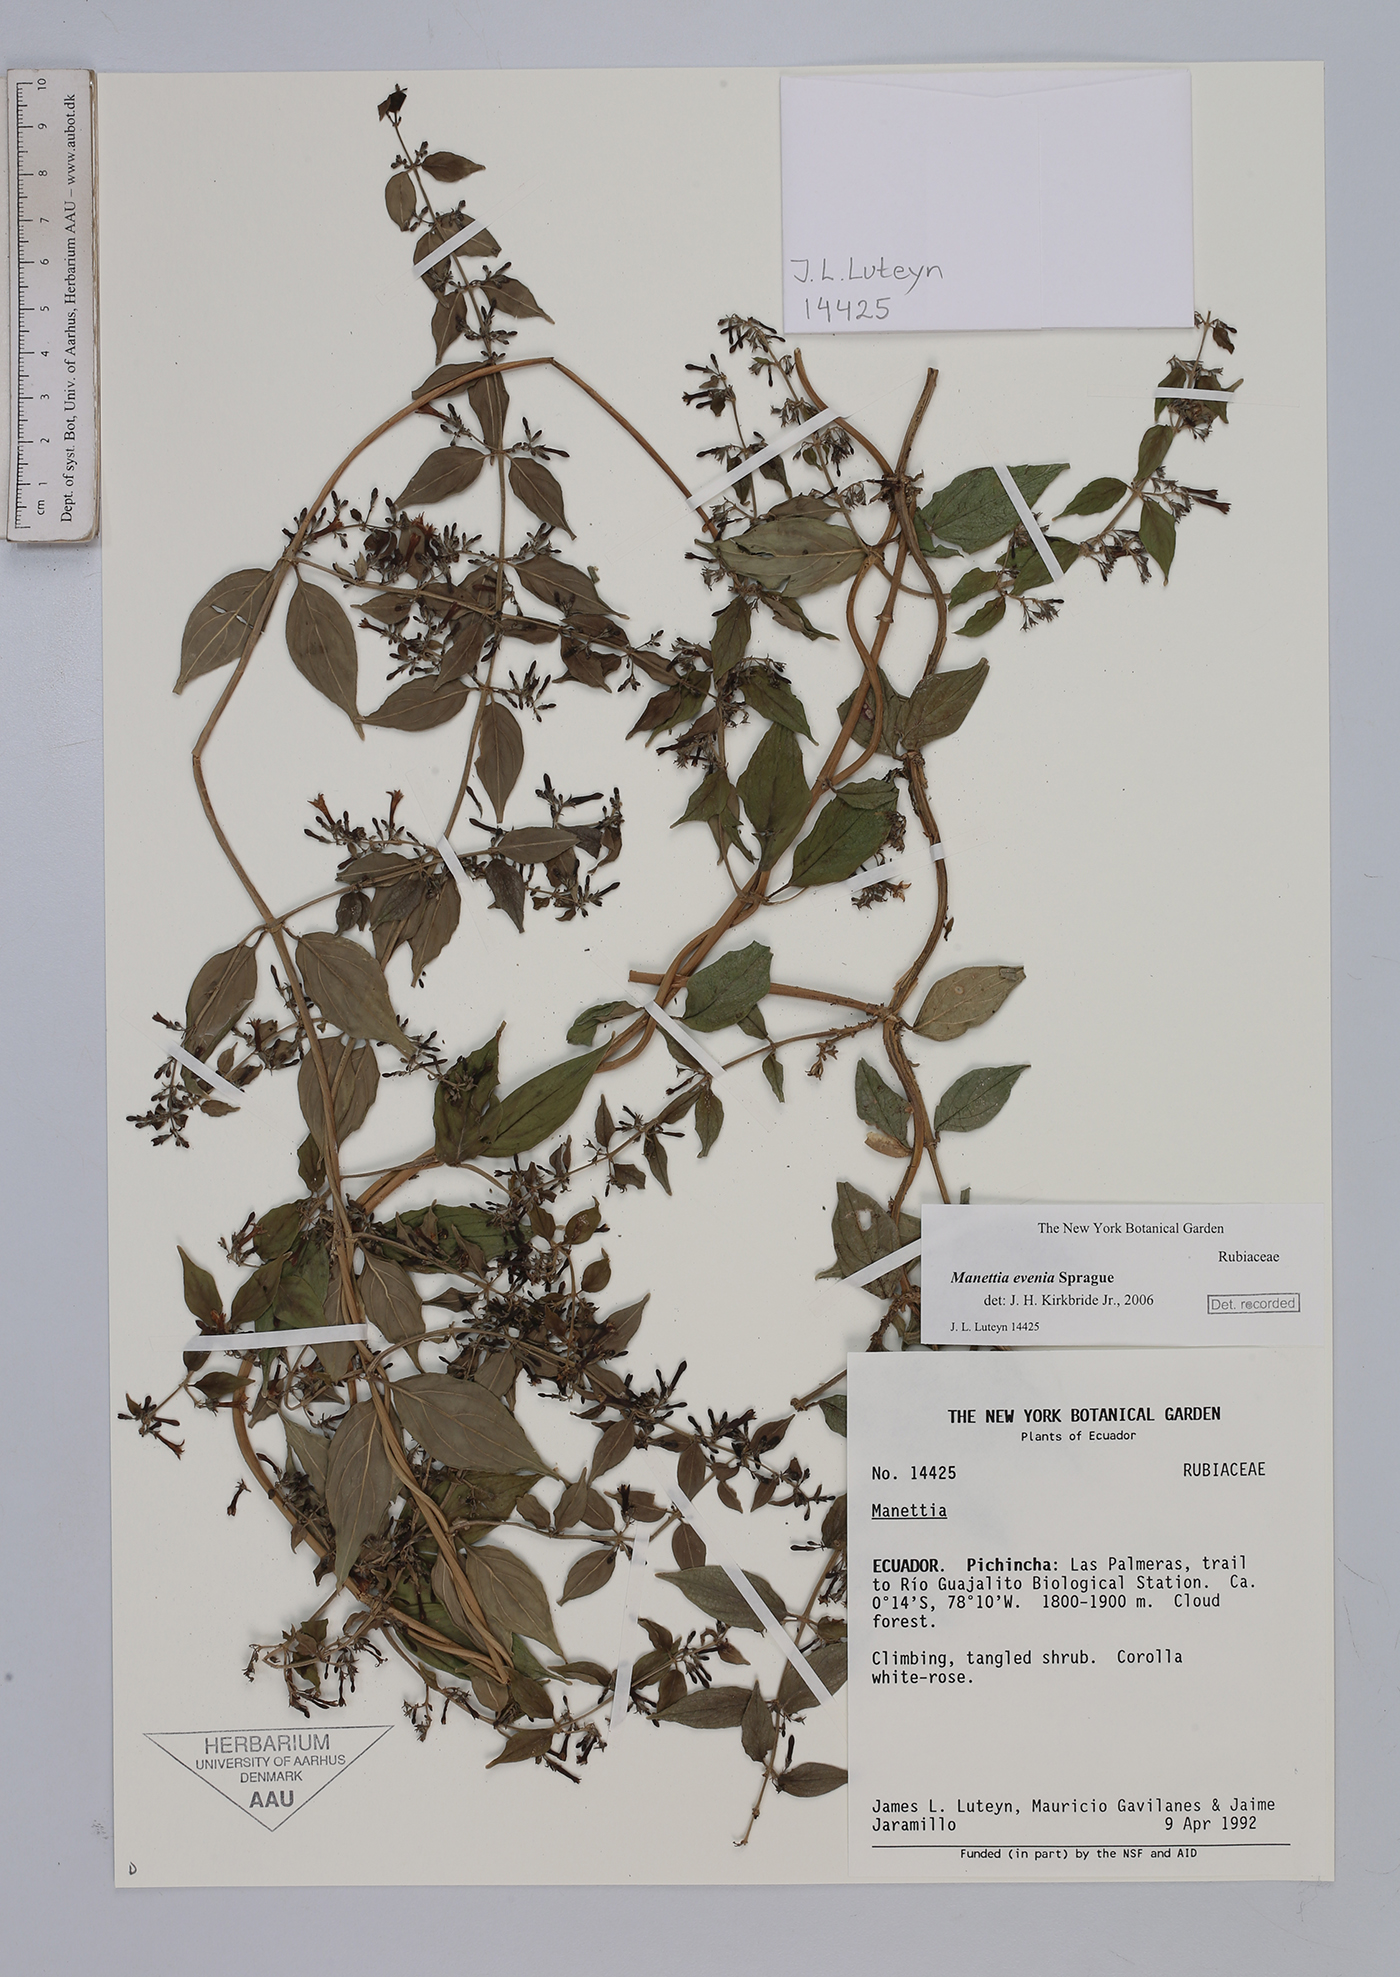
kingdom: Plantae
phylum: Tracheophyta
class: Magnoliopsida
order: Gentianales
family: Rubiaceae
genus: Manettia
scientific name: Manettia evenia
